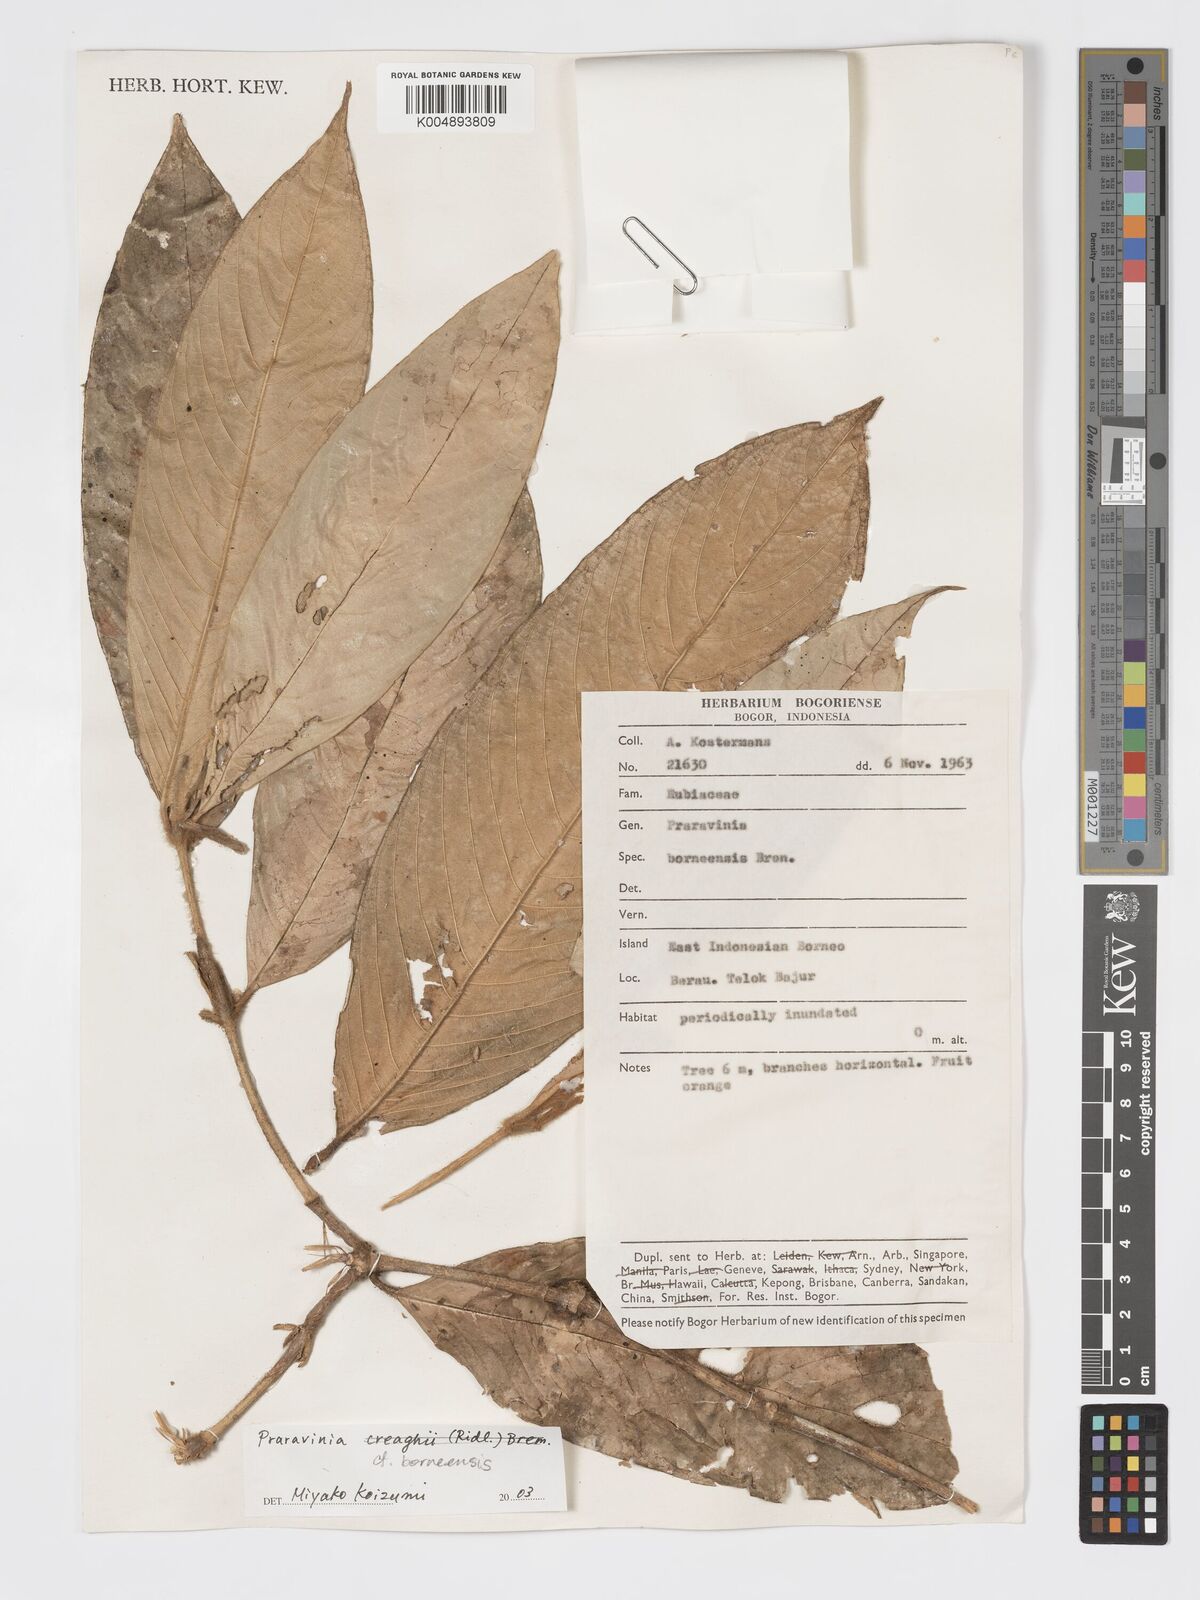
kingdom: Plantae
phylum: Tracheophyta
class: Magnoliopsida
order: Gentianales
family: Rubiaceae
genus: Praravinia
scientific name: Praravinia borneensis
